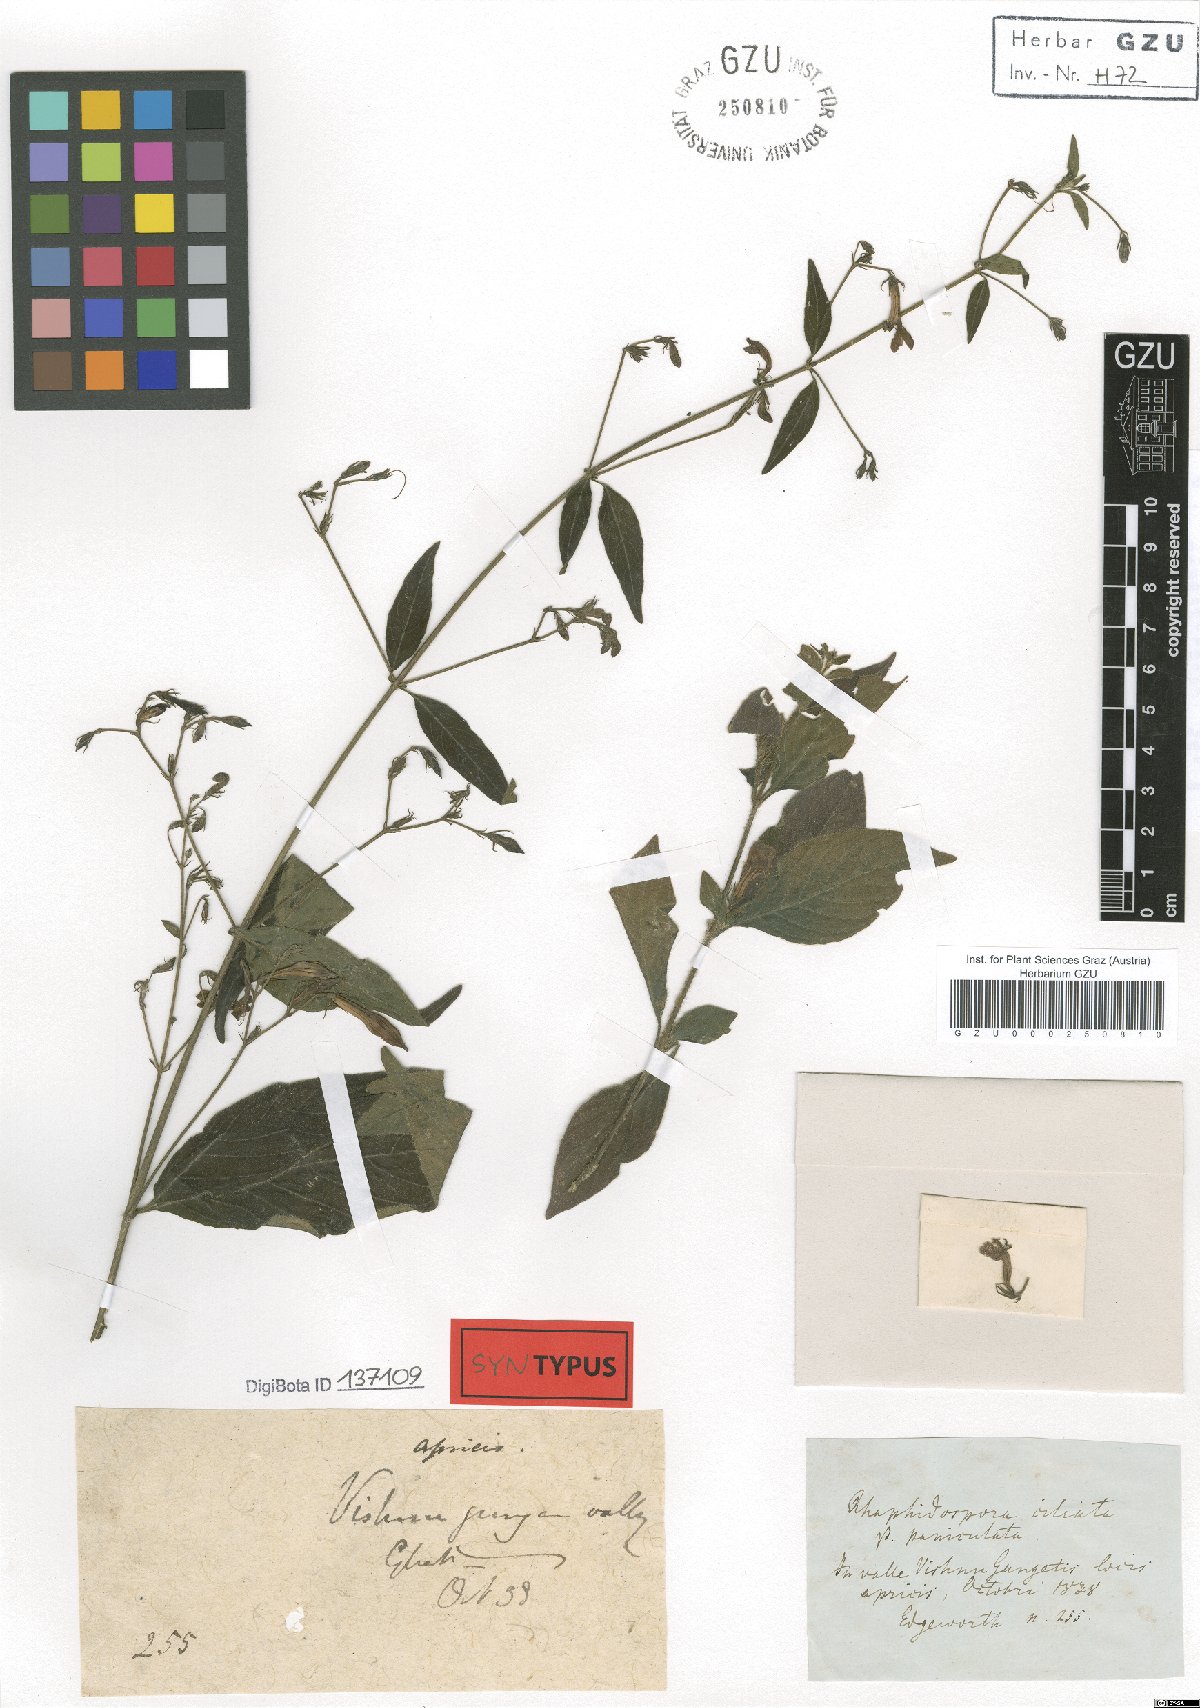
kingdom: Plantae
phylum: Tracheophyta
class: Magnoliopsida
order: Lamiales
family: Acanthaceae
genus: Justicia
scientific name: Justicia pubigera
